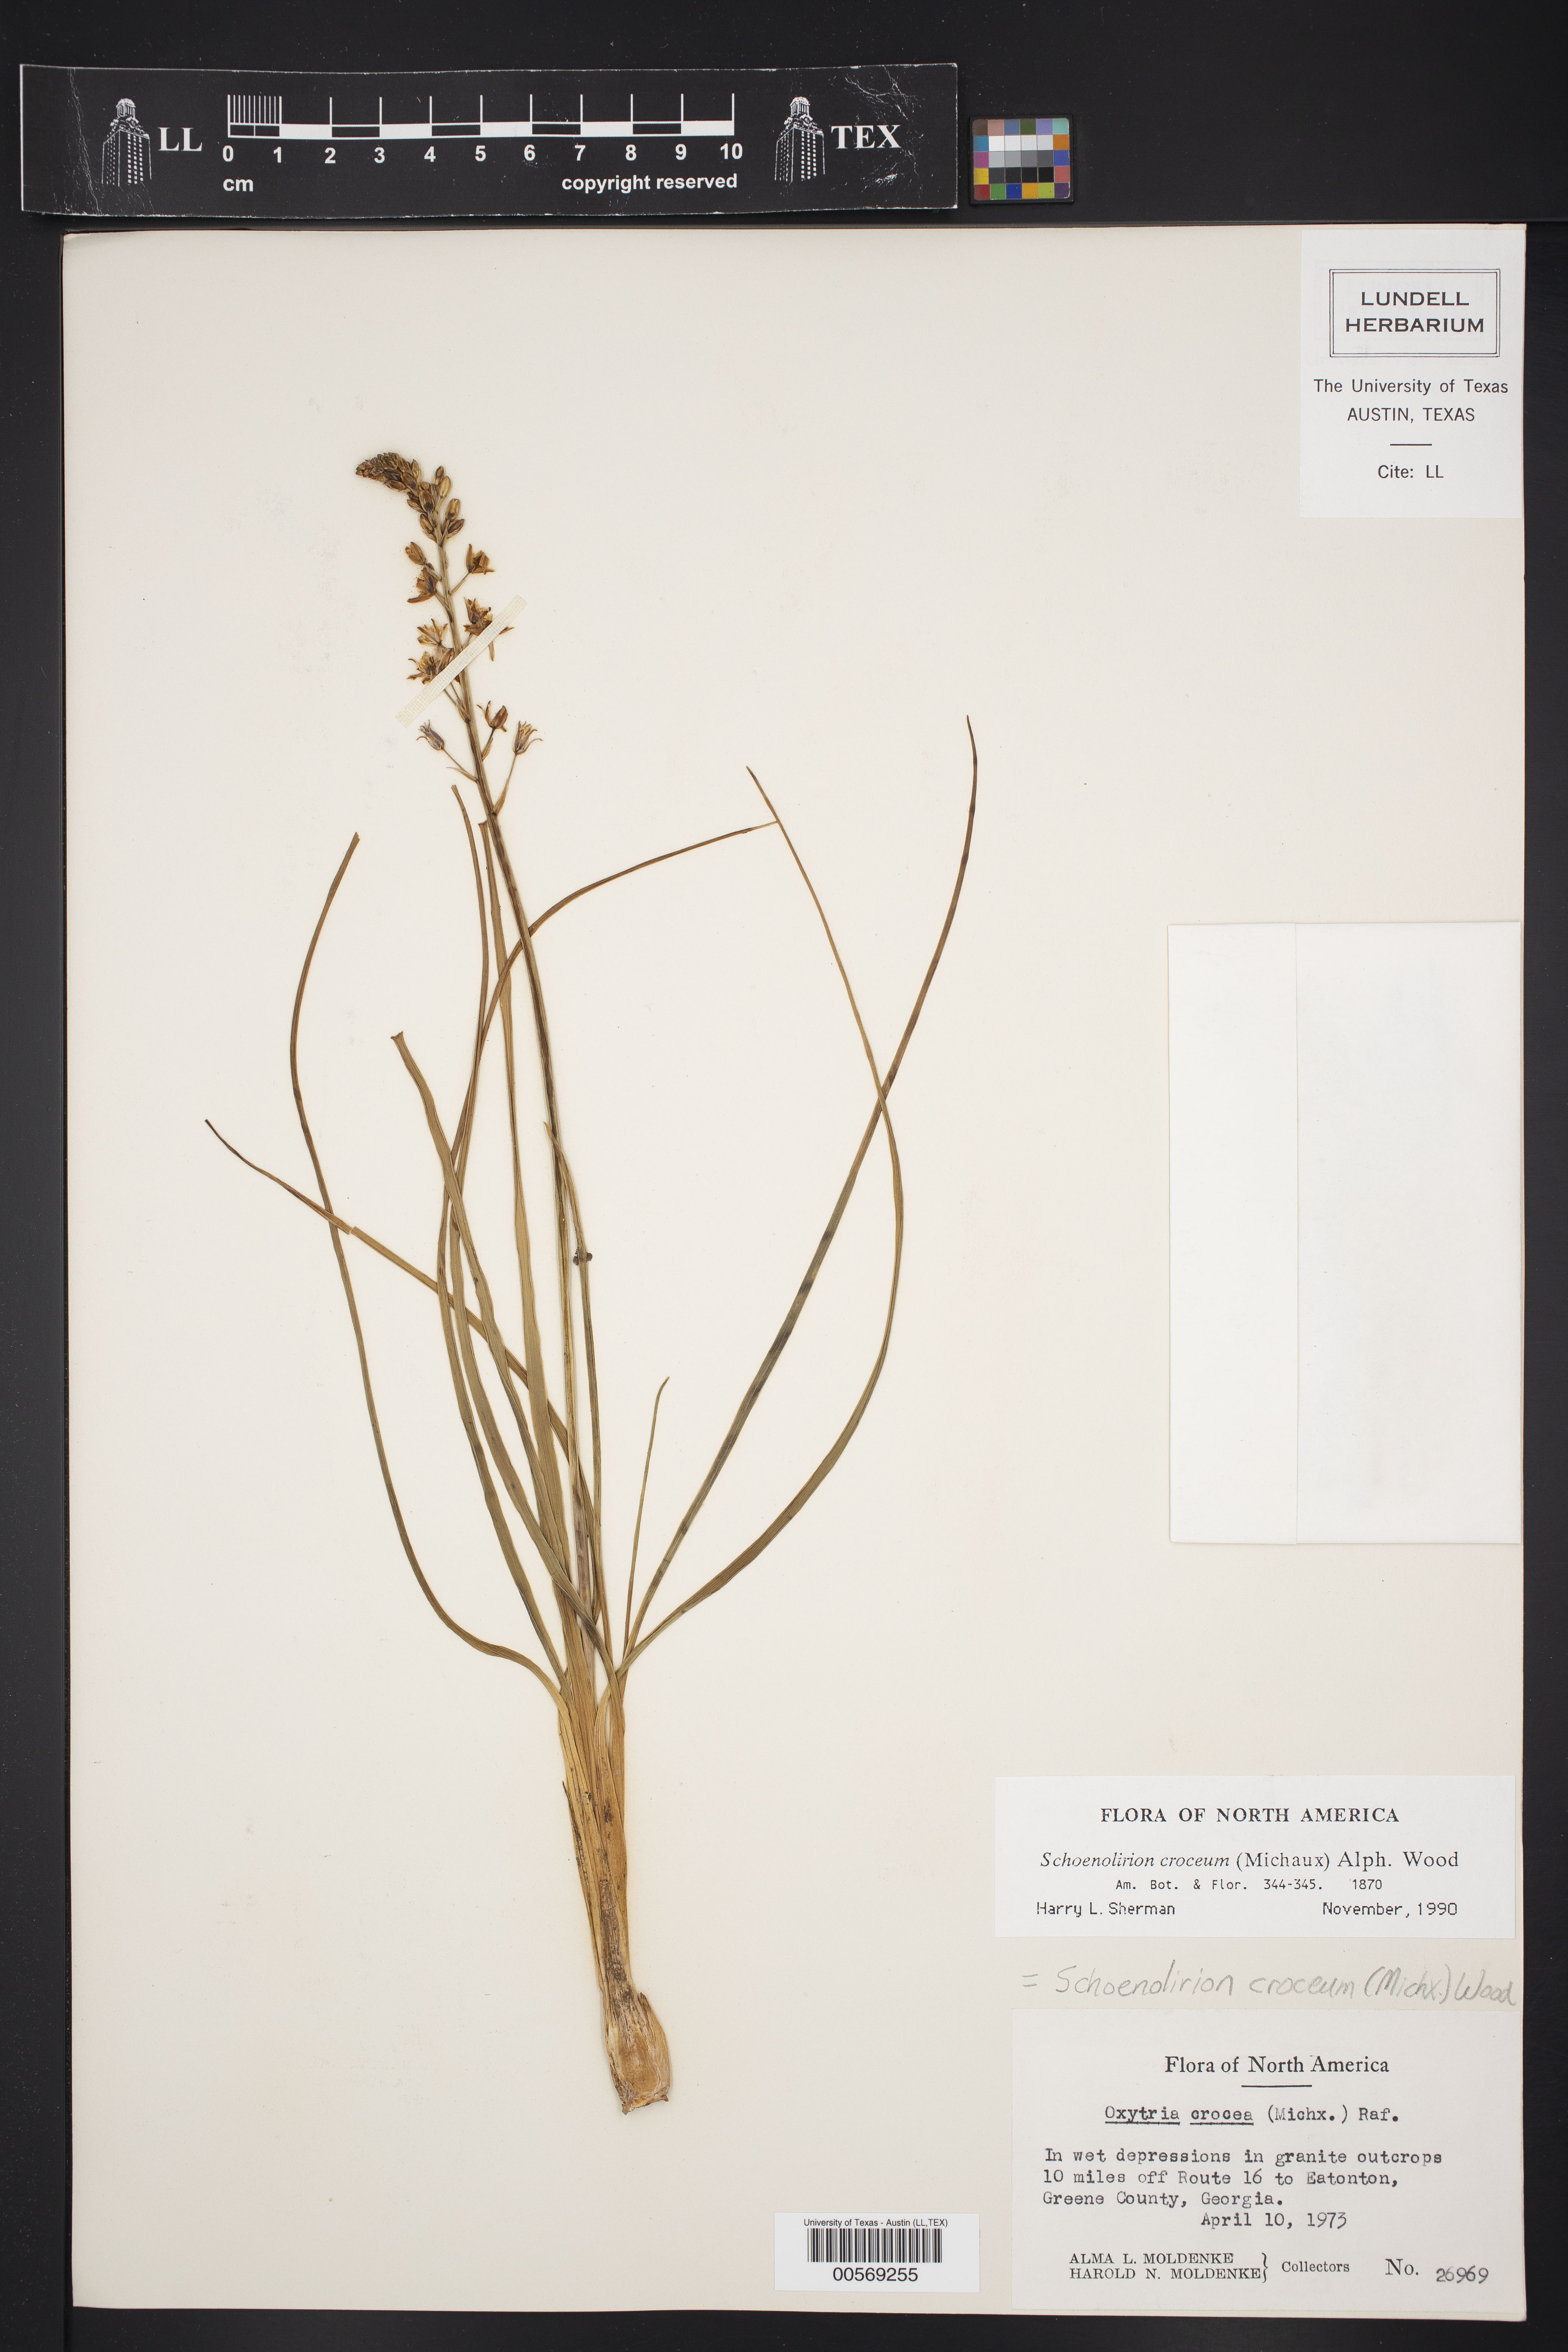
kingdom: Plantae
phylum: Tracheophyta
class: Liliopsida
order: Asparagales
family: Asparagaceae
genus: Schoenolirion
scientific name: Schoenolirion croceum
